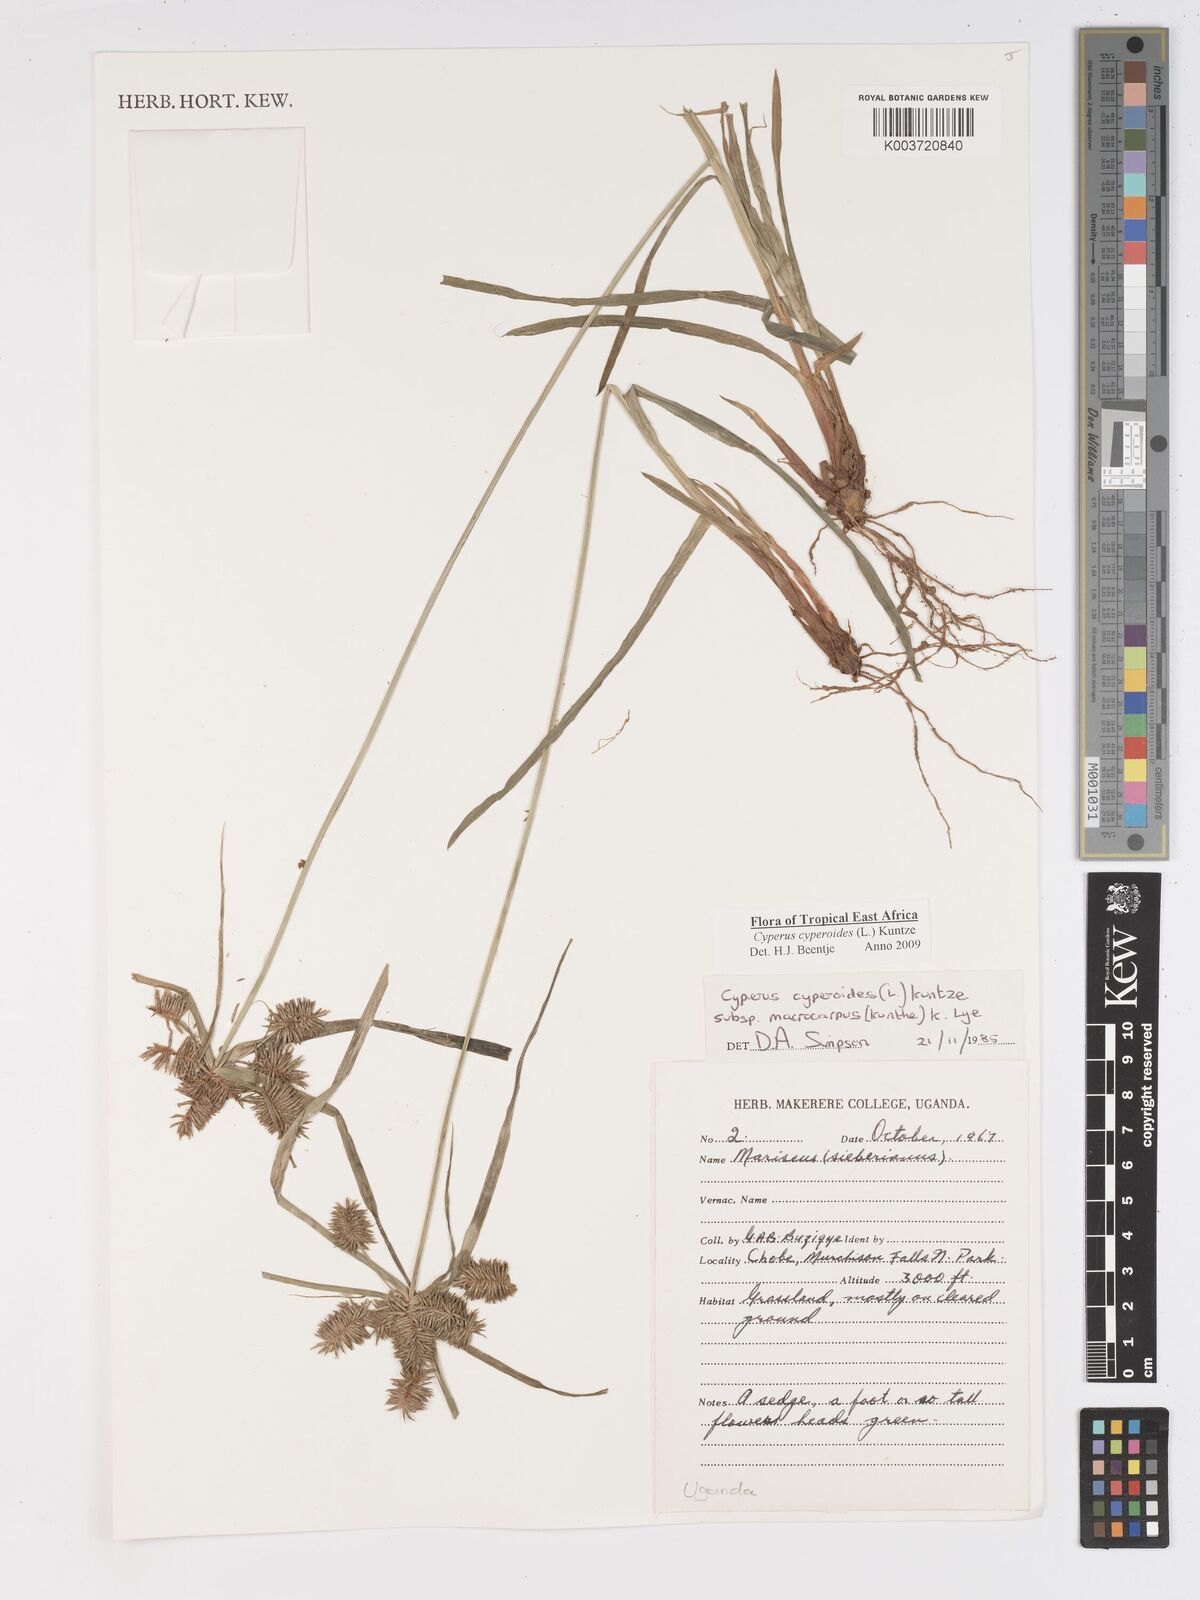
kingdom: Plantae
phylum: Tracheophyta
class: Liliopsida
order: Poales
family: Cyperaceae
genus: Cyperus
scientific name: Cyperus cyperoides
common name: Pacific island flat sedge
